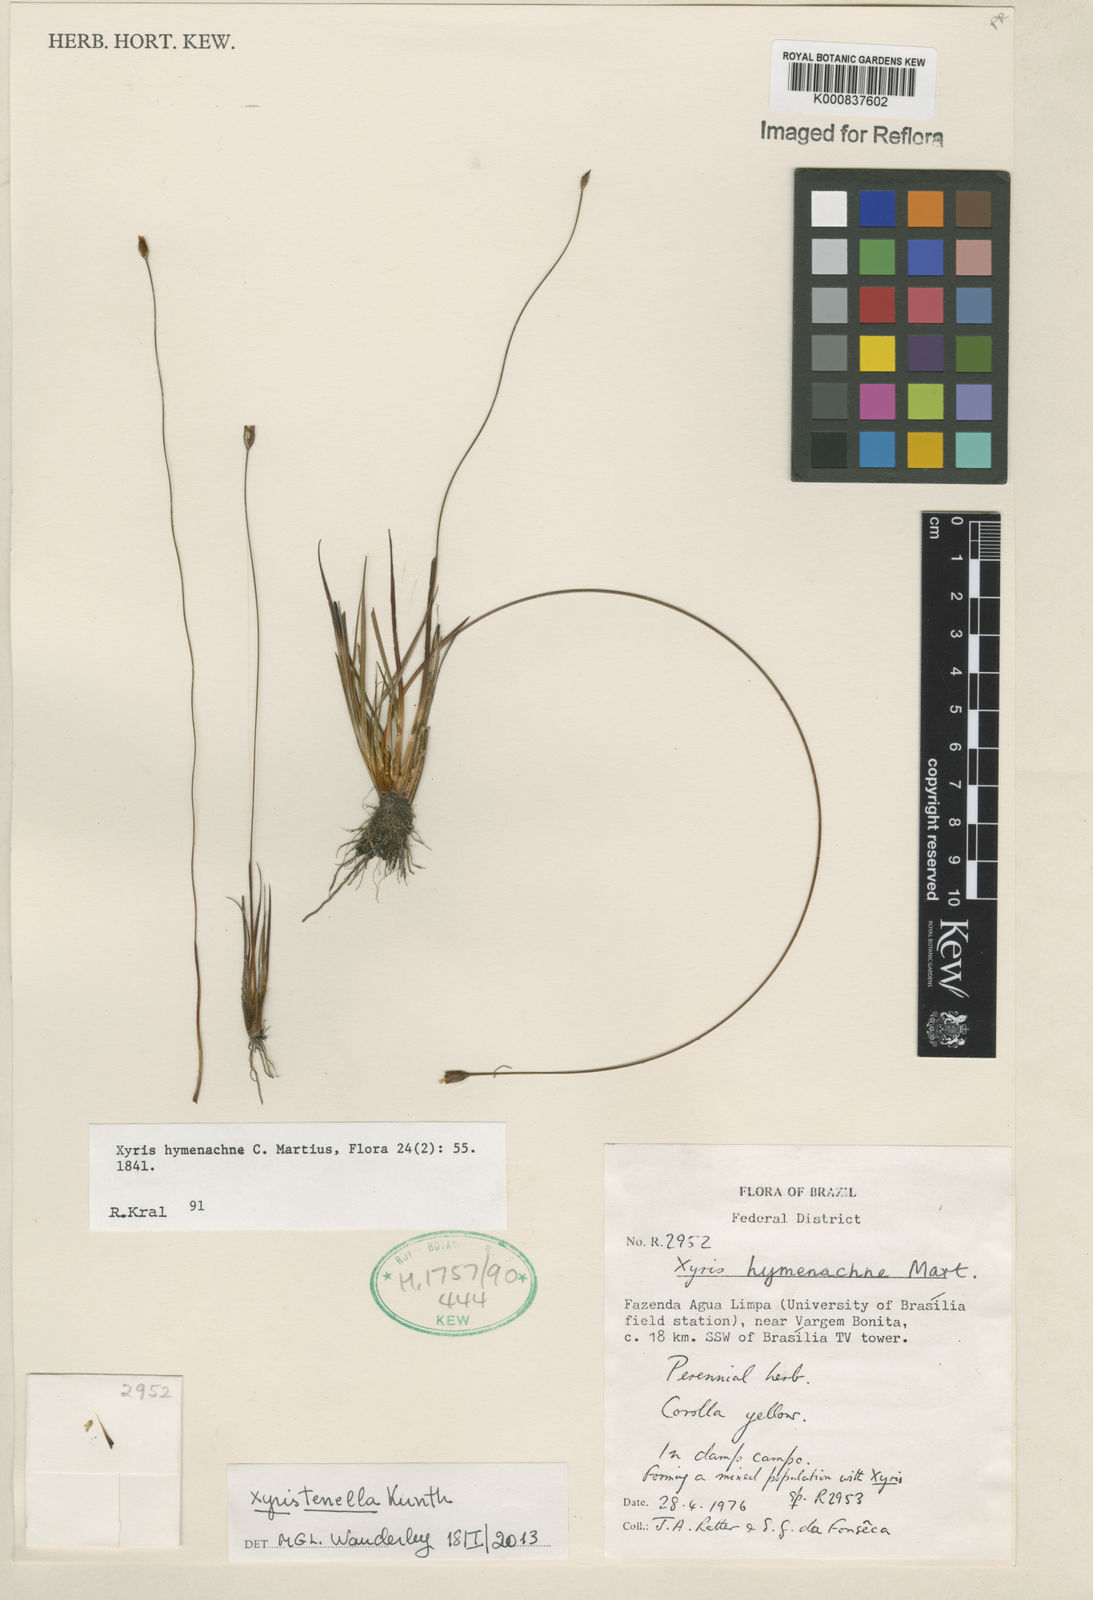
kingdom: Plantae
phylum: Tracheophyta
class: Liliopsida
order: Poales
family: Xyridaceae
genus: Xyris
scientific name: Xyris tenella
